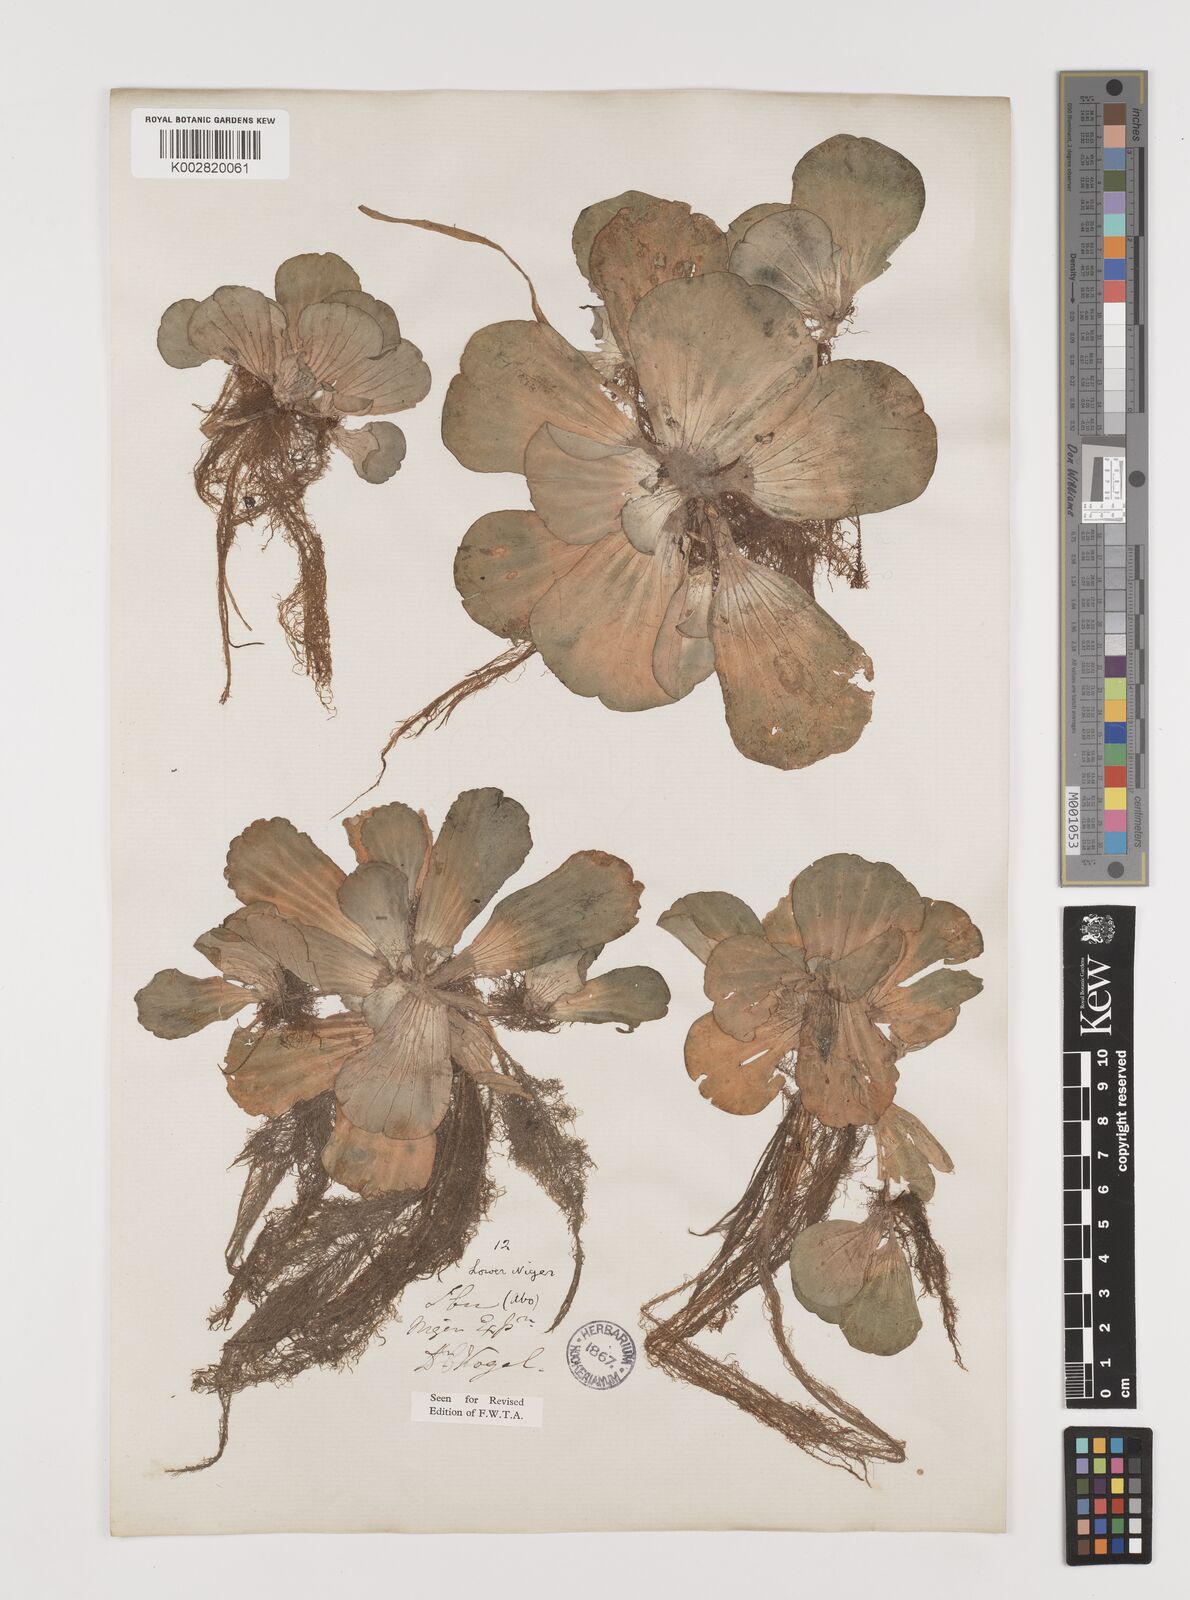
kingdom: Plantae
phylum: Tracheophyta
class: Liliopsida
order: Alismatales
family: Araceae
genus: Pistia
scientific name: Pistia stratiotes
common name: Water lettuce
